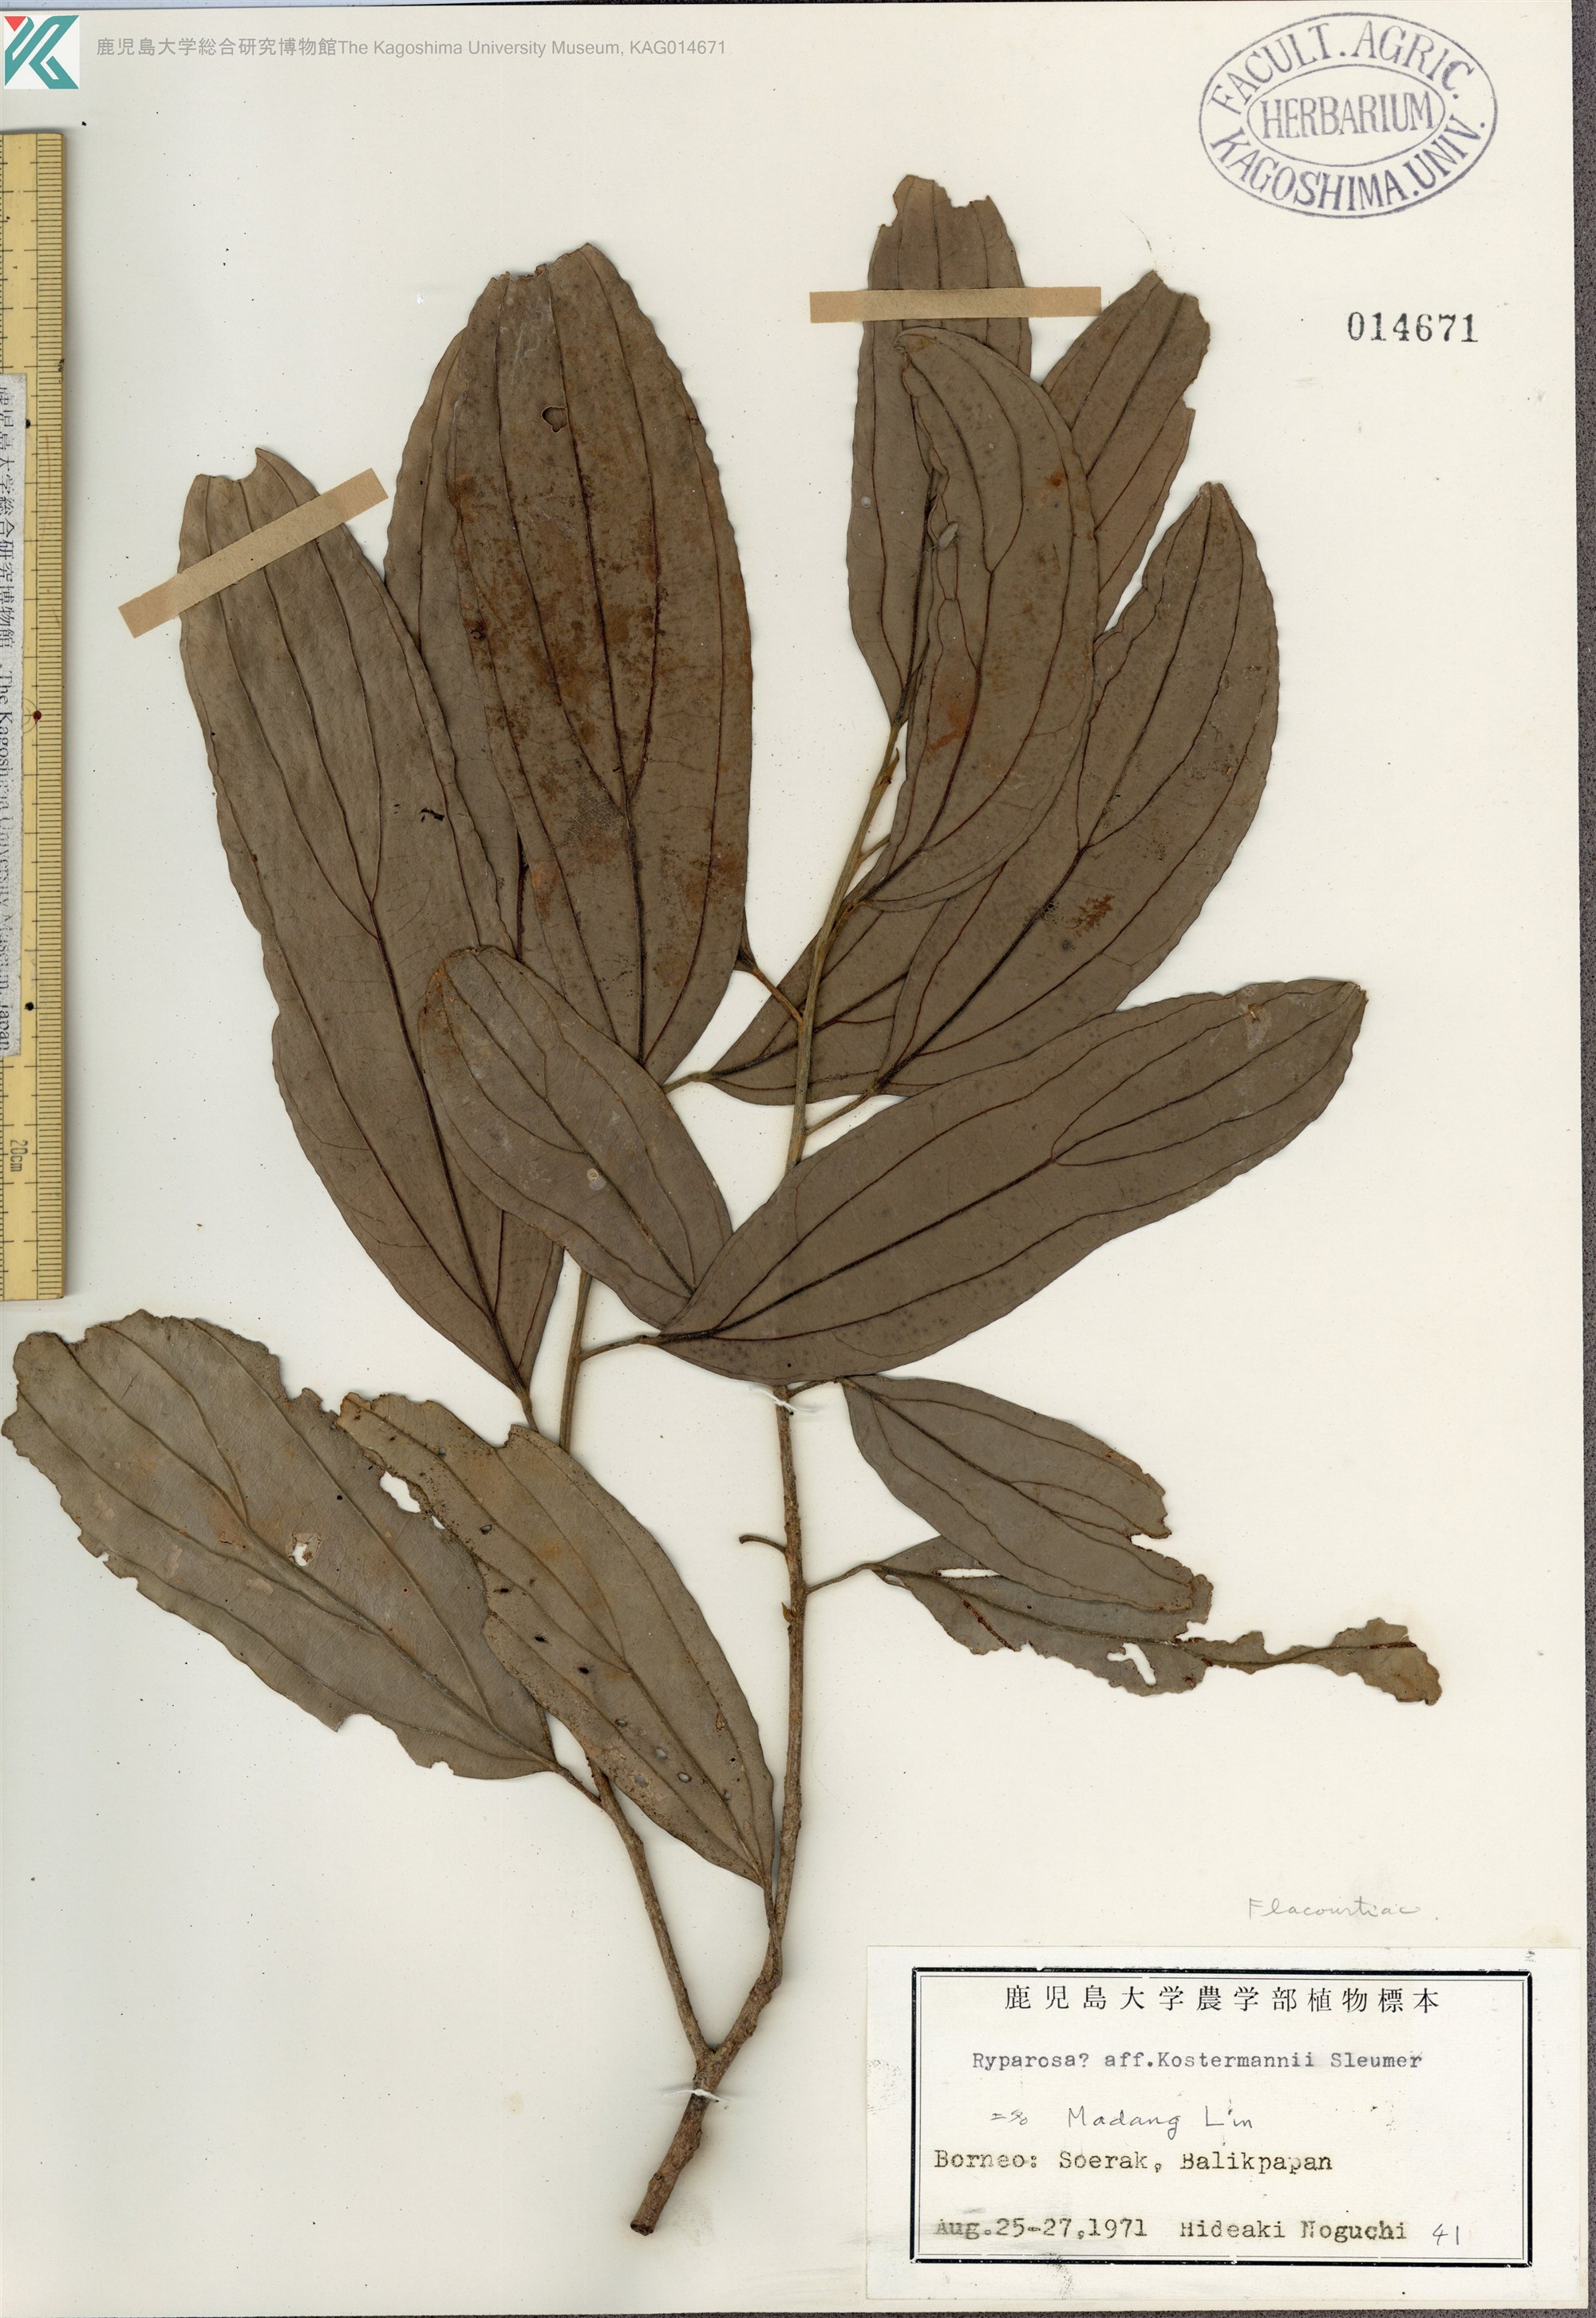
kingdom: Plantae
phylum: Tracheophyta
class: Magnoliopsida
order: Malpighiales
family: Achariaceae
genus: Ryparosa
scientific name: Ryparosa kostermansii
